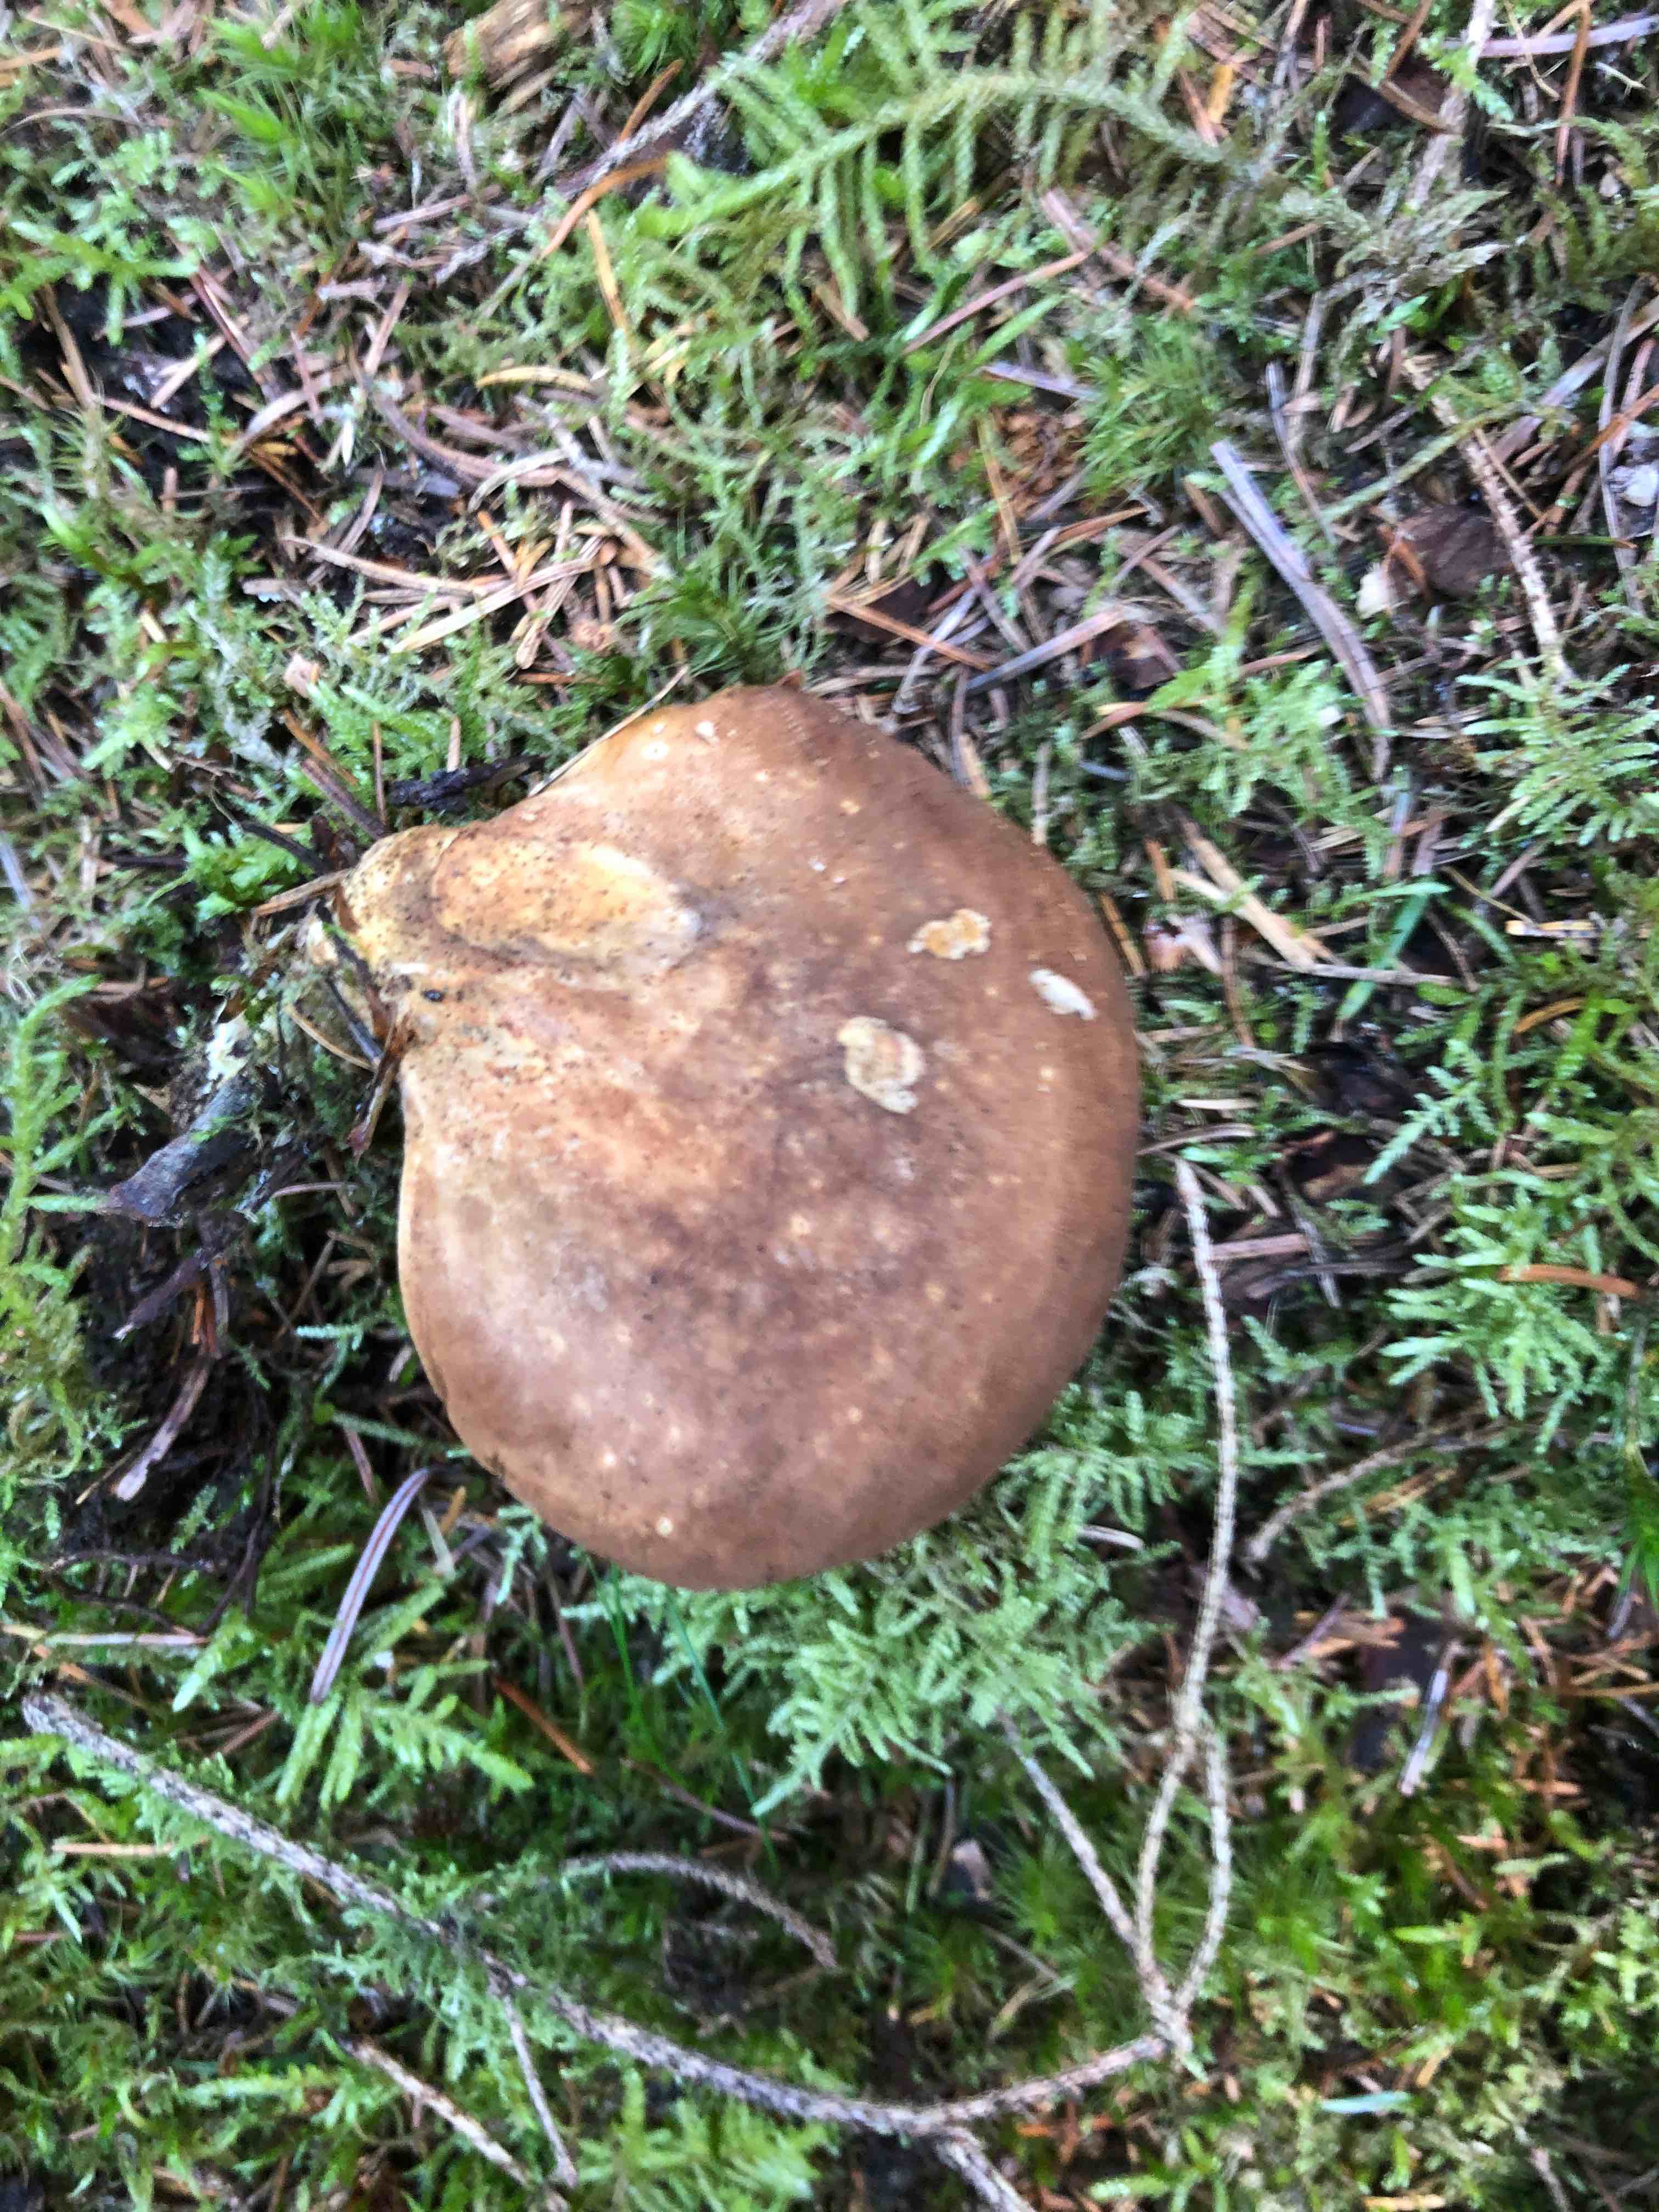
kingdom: Fungi
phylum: Basidiomycota
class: Agaricomycetes
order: Boletales
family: Tapinellaceae
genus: Tapinella
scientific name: Tapinella atrotomentosa
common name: sortfiltet viftesvamp
